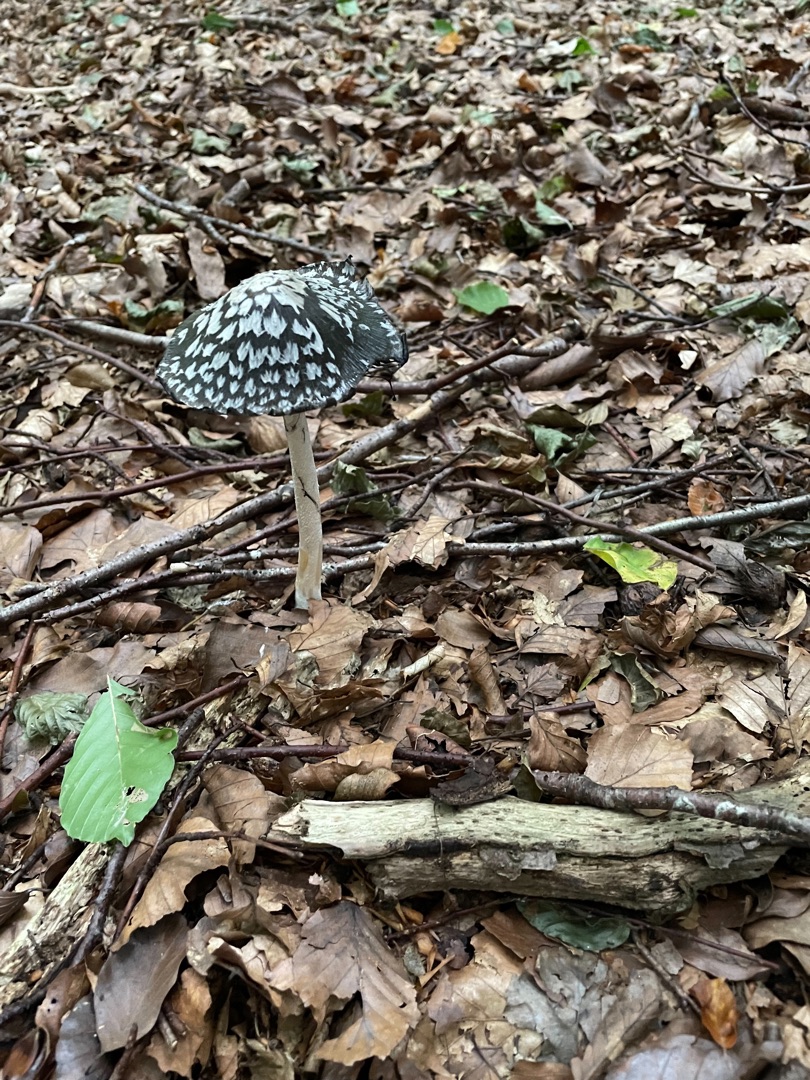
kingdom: Fungi
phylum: Basidiomycota
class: Agaricomycetes
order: Agaricales
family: Psathyrellaceae
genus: Coprinopsis
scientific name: Coprinopsis picacea
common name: Skade-blækhat
